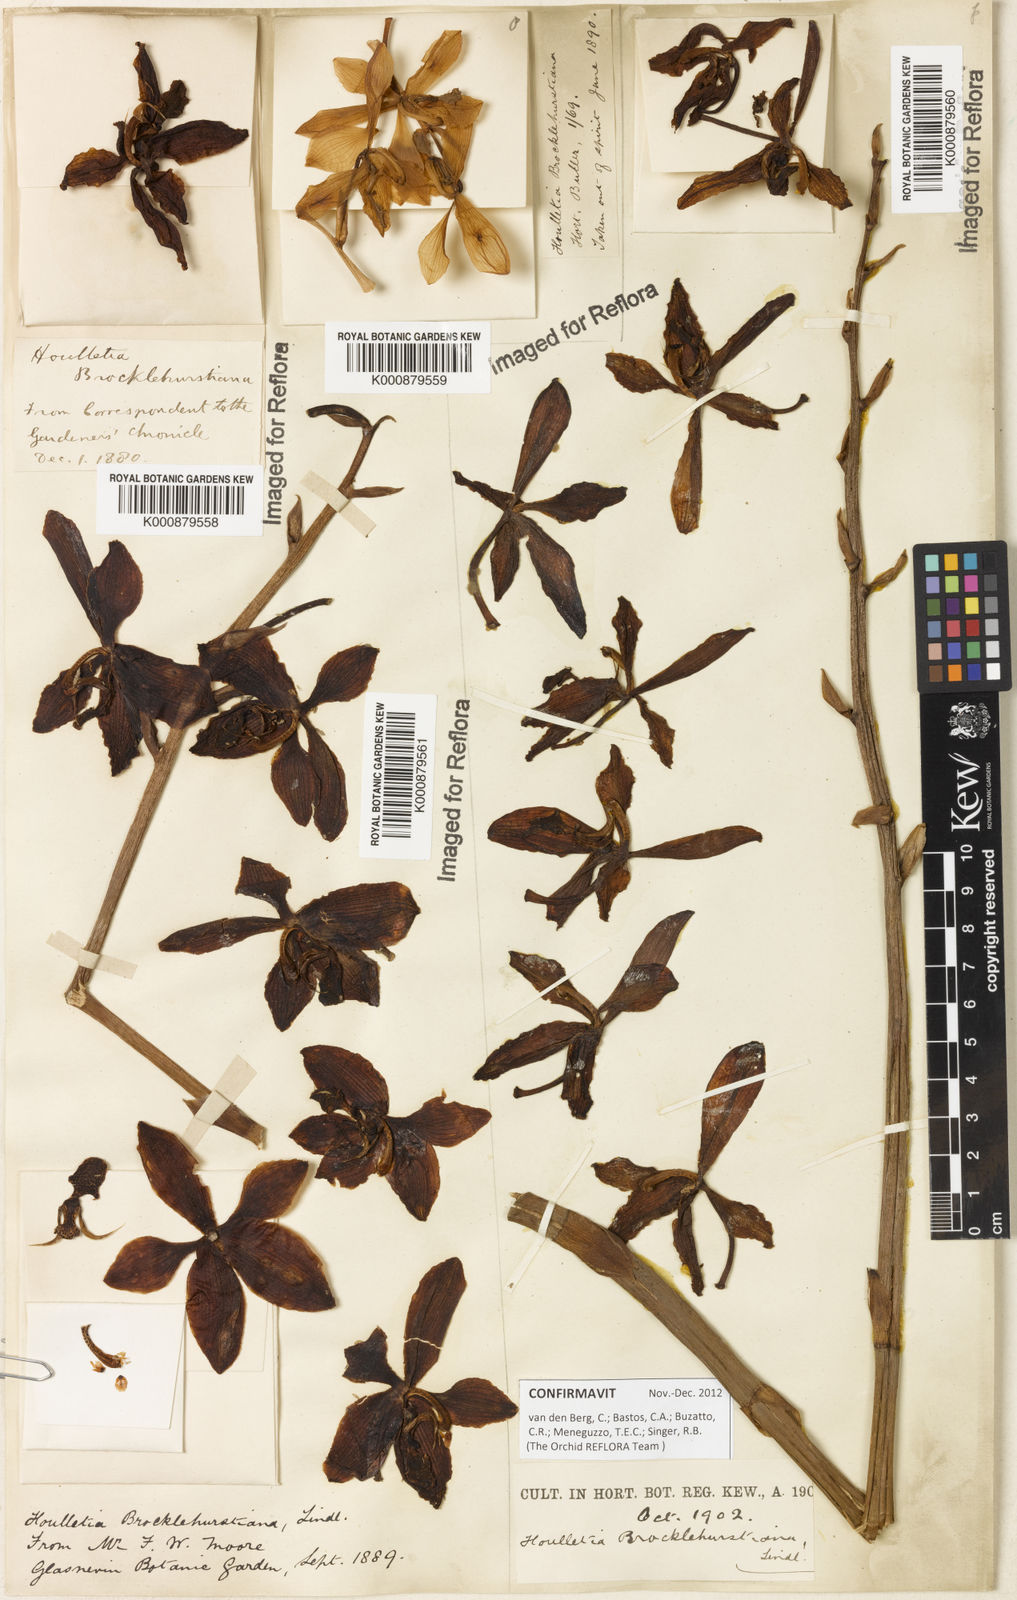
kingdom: Plantae
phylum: Tracheophyta
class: Liliopsida
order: Asparagales
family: Orchidaceae
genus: Houlletia
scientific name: Houlletia brocklehurstiana
